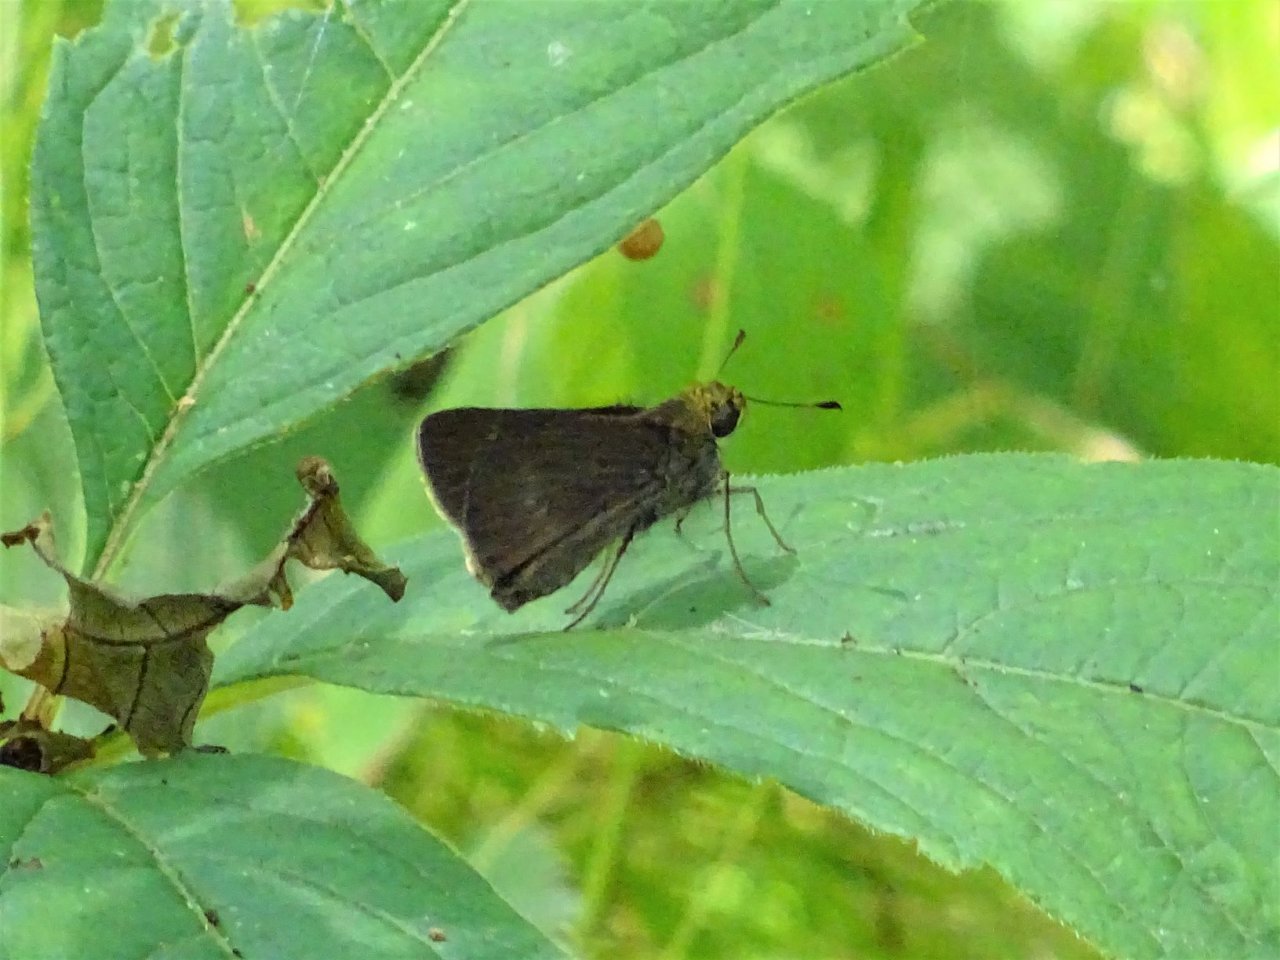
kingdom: Animalia
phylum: Arthropoda
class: Insecta
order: Lepidoptera
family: Hesperiidae
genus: Euphyes
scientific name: Euphyes vestris
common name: Dun Skipper
